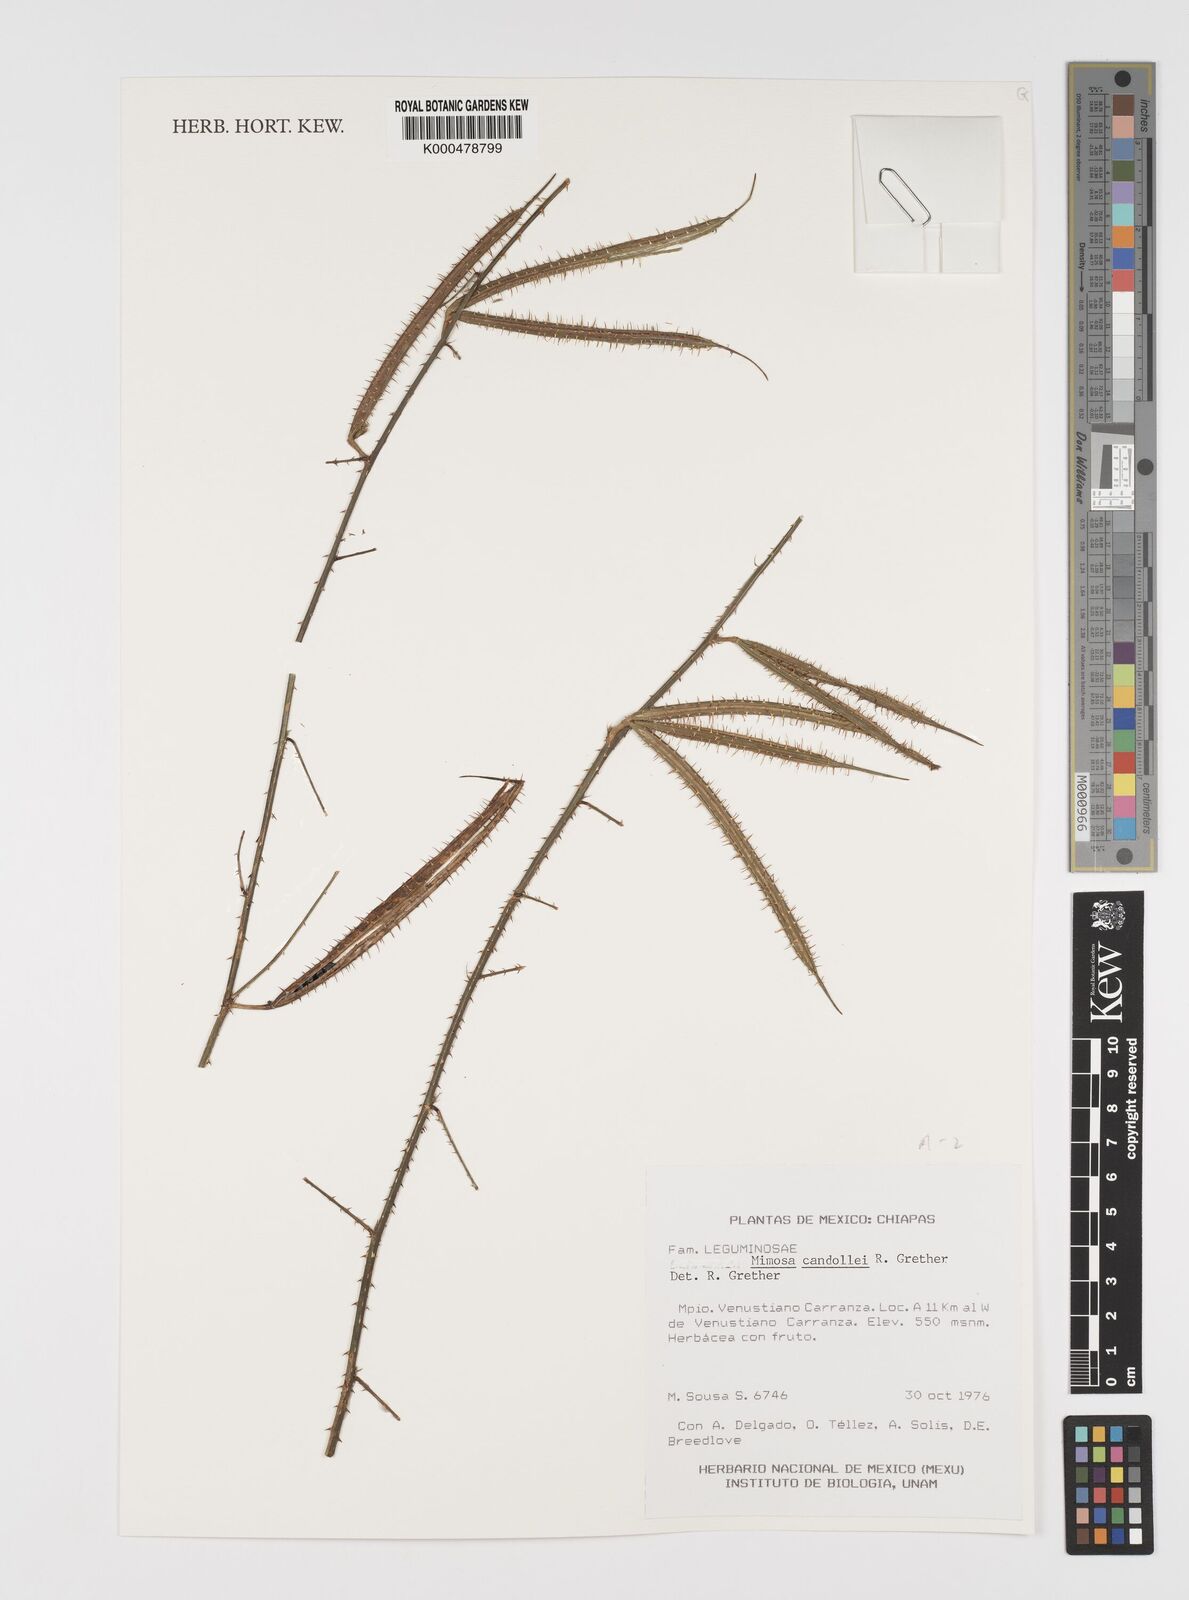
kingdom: Plantae
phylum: Tracheophyta
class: Magnoliopsida
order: Fabales
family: Fabaceae
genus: Mimosa
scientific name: Mimosa candollei
